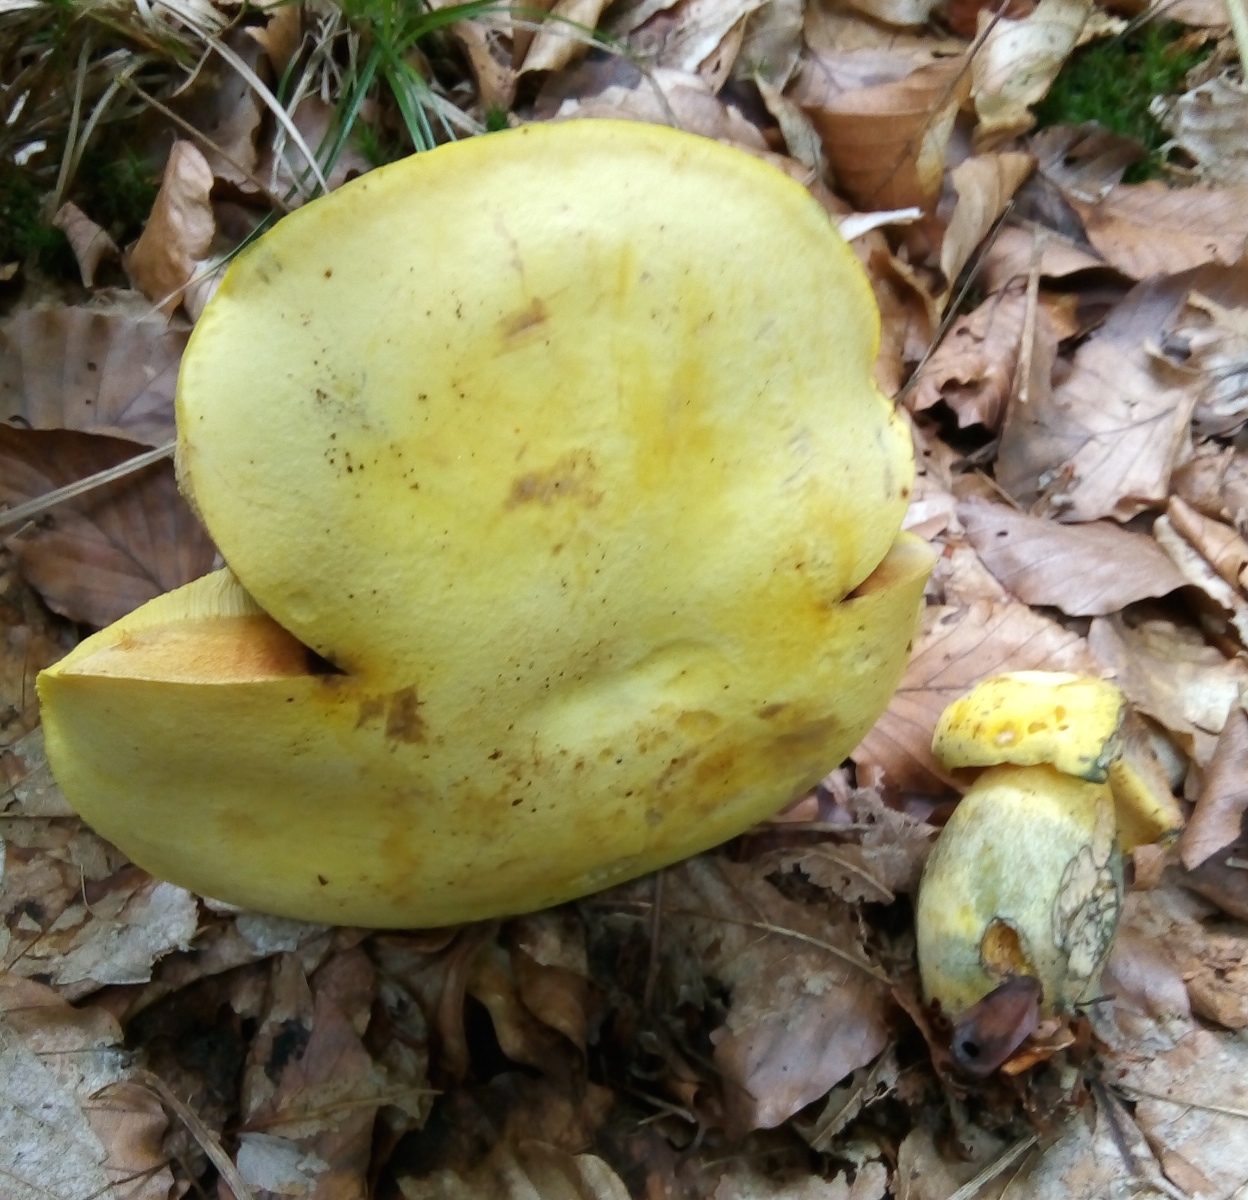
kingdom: Fungi
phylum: Basidiomycota
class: Agaricomycetes
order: Boletales
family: Boletaceae
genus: Neoboletus
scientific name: Neoboletus praestigiator
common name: gul indigorørhat
